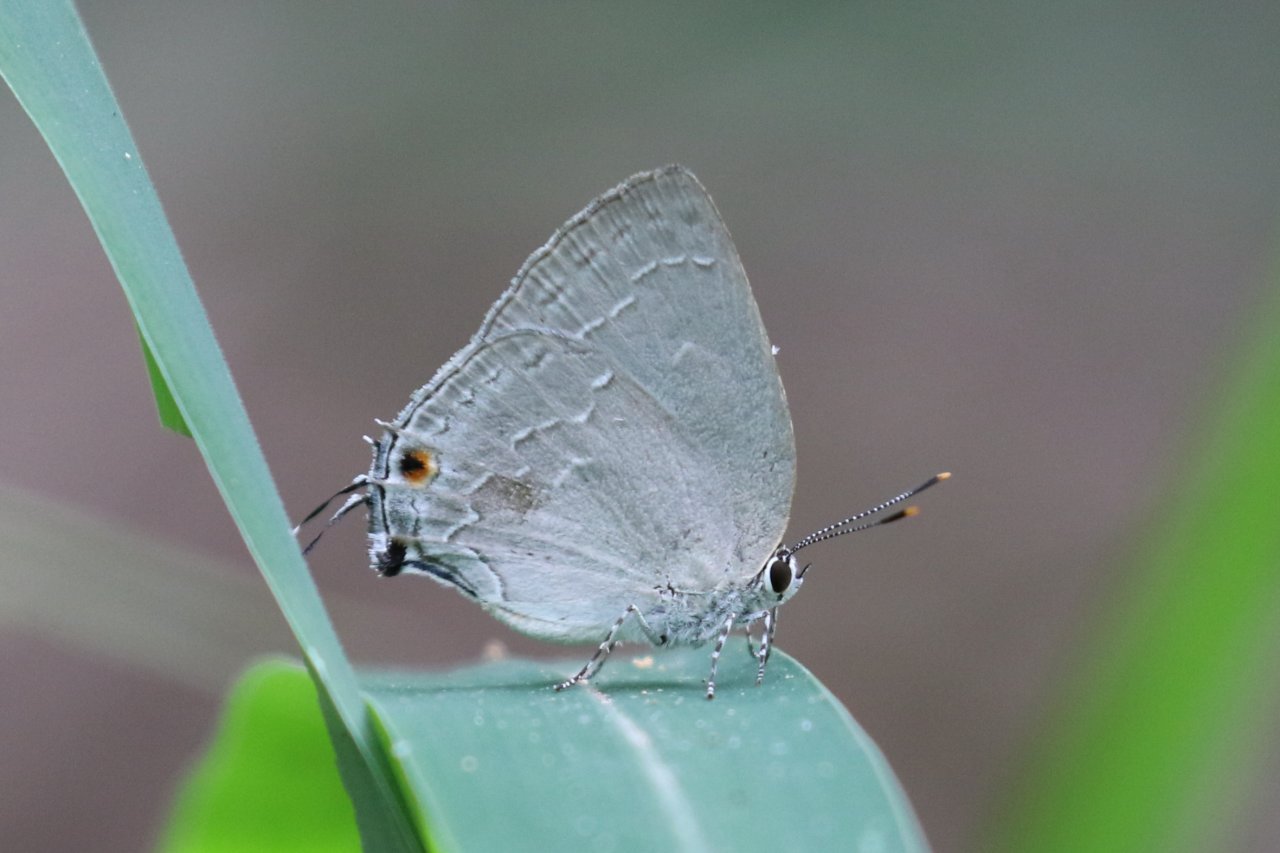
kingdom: Animalia
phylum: Arthropoda
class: Insecta
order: Lepidoptera
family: Lycaenidae
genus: Strephonota
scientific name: Strephonota tephraeus
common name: Pearly-Gray Hairstreak
